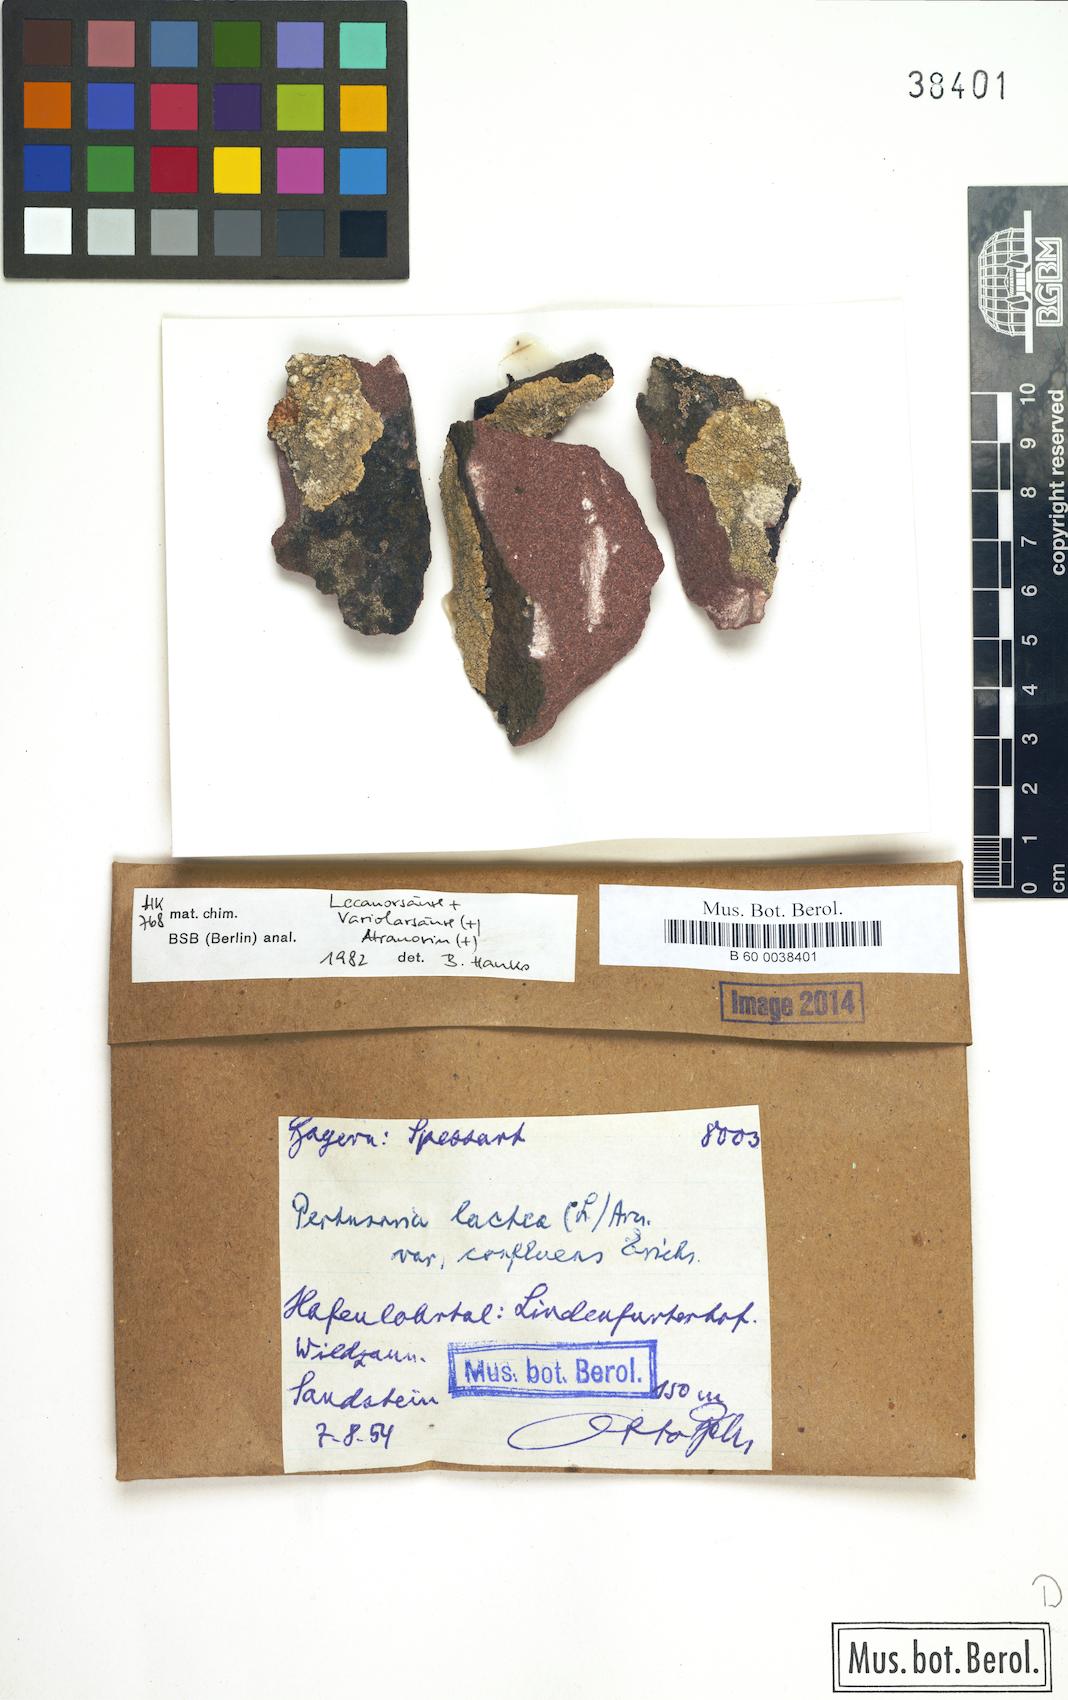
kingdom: Fungi
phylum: Ascomycota
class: Lecanoromycetes
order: Pertusariales
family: Varicellariaceae
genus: Varicellaria
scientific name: Varicellaria lactea
